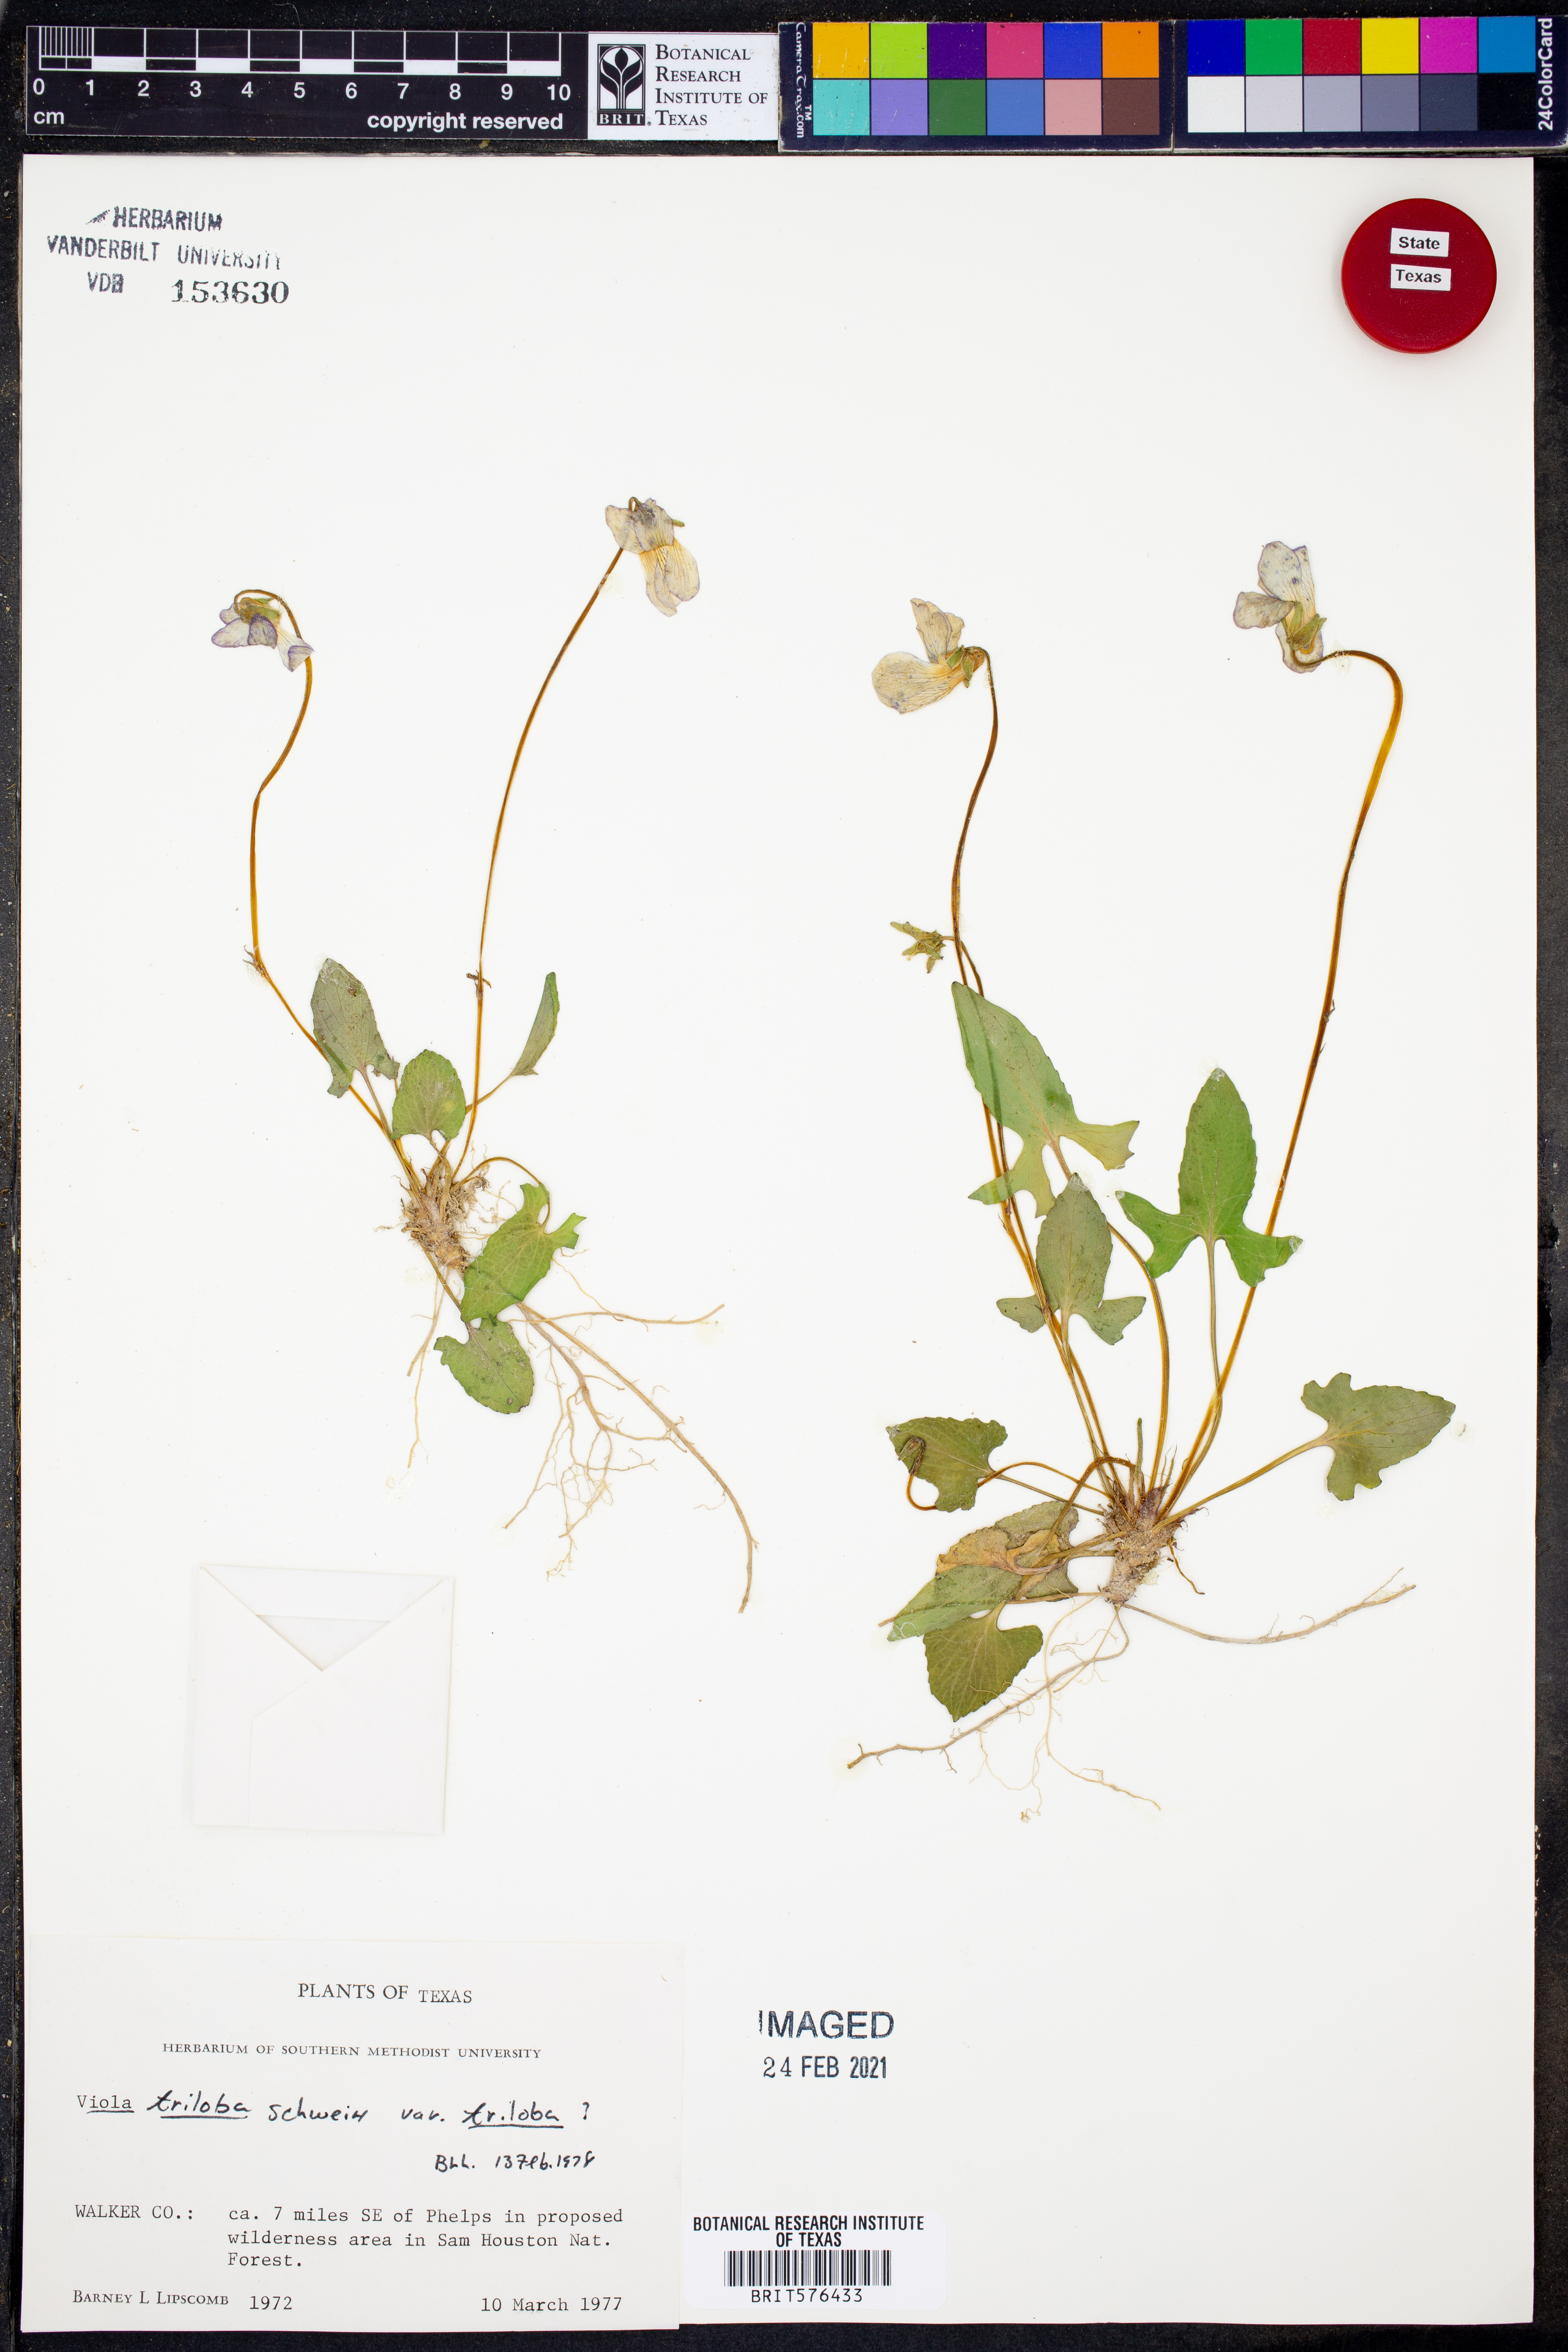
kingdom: Plantae
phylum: Tracheophyta
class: Magnoliopsida
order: Malpighiales
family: Violaceae
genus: Viola
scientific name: Viola palmata
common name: Early blue violet
